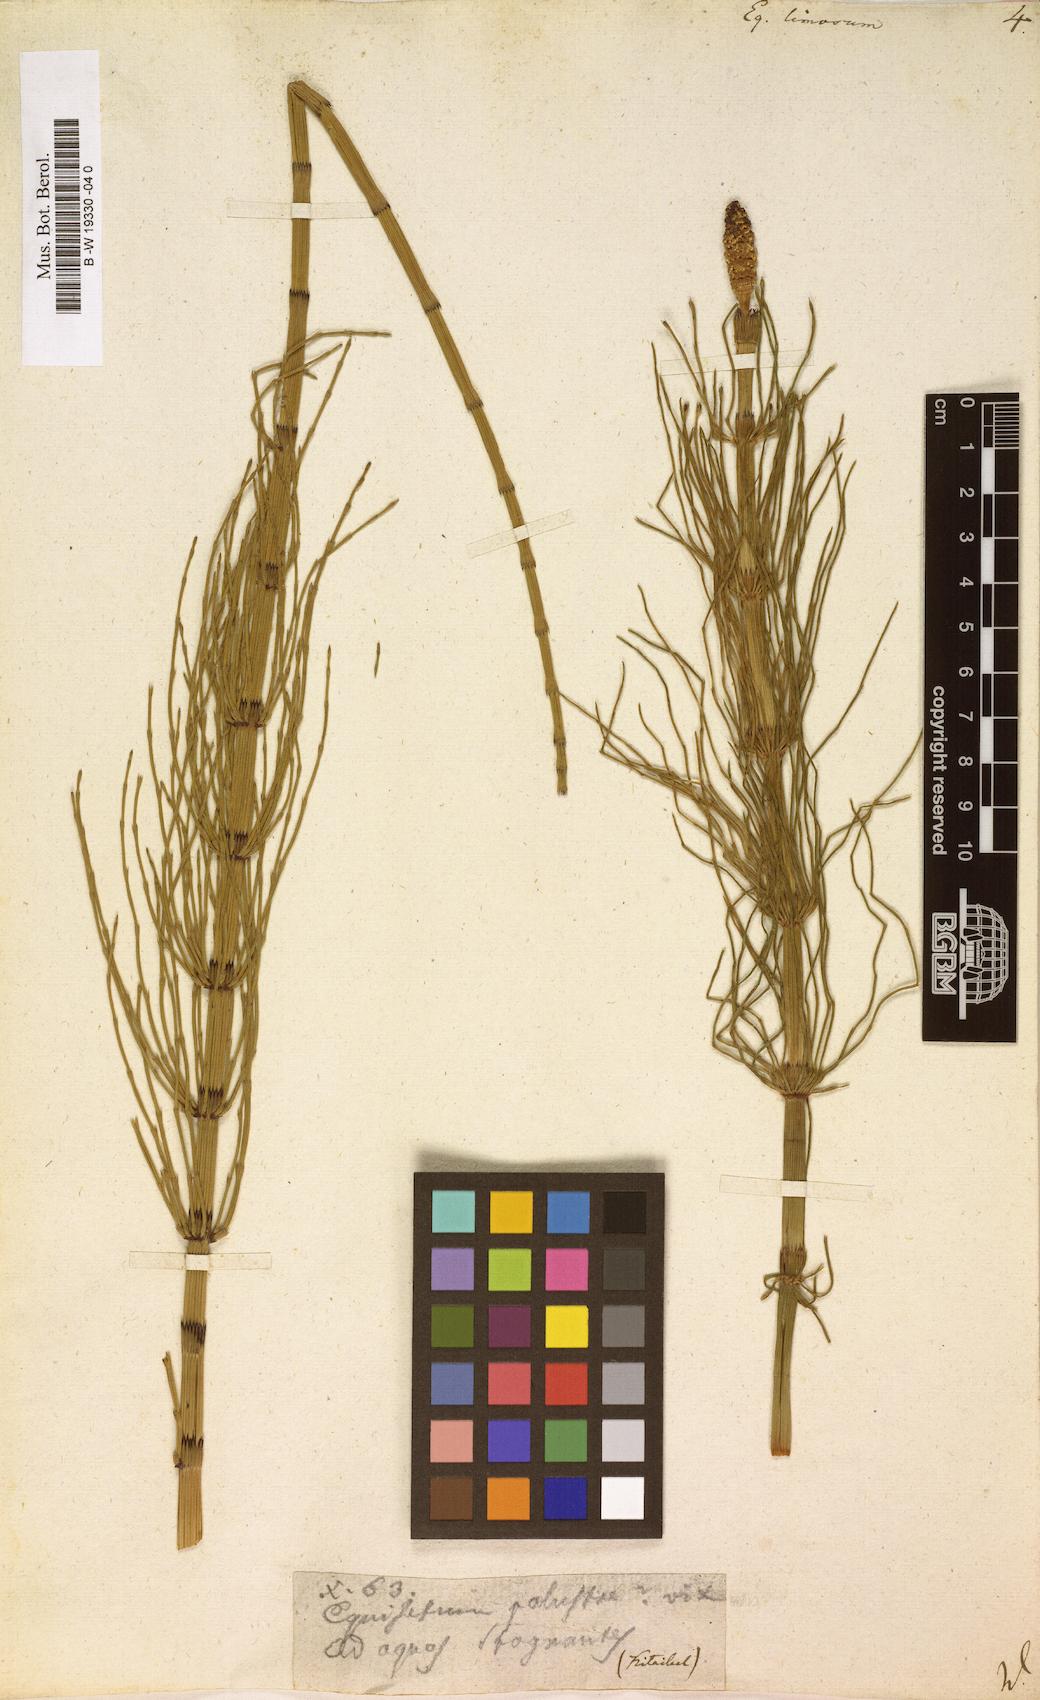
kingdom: Plantae
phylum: Tracheophyta
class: Polypodiopsida
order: Equisetales
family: Equisetaceae
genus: Equisetum
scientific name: Equisetum fluviatile
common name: Water horsetail
